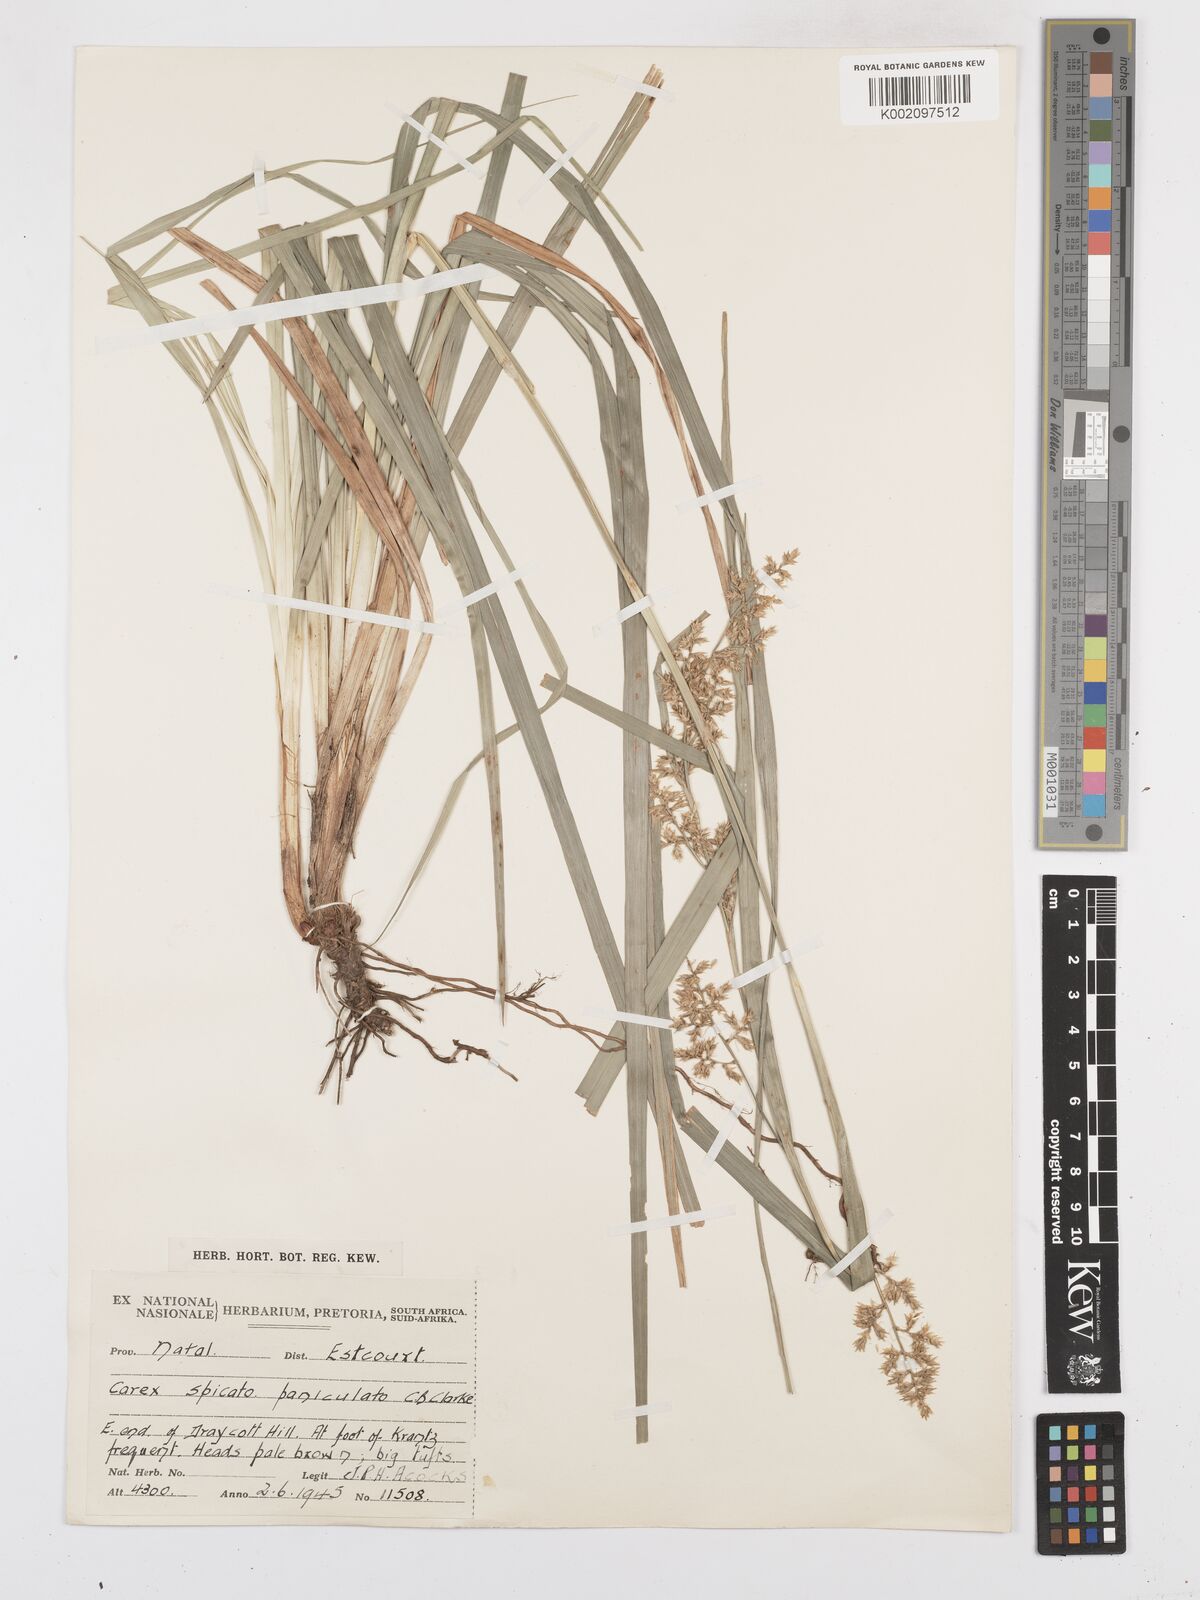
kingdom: Plantae
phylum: Tracheophyta
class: Liliopsida
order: Poales
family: Cyperaceae
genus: Carex
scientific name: Carex spicatopaniculata
